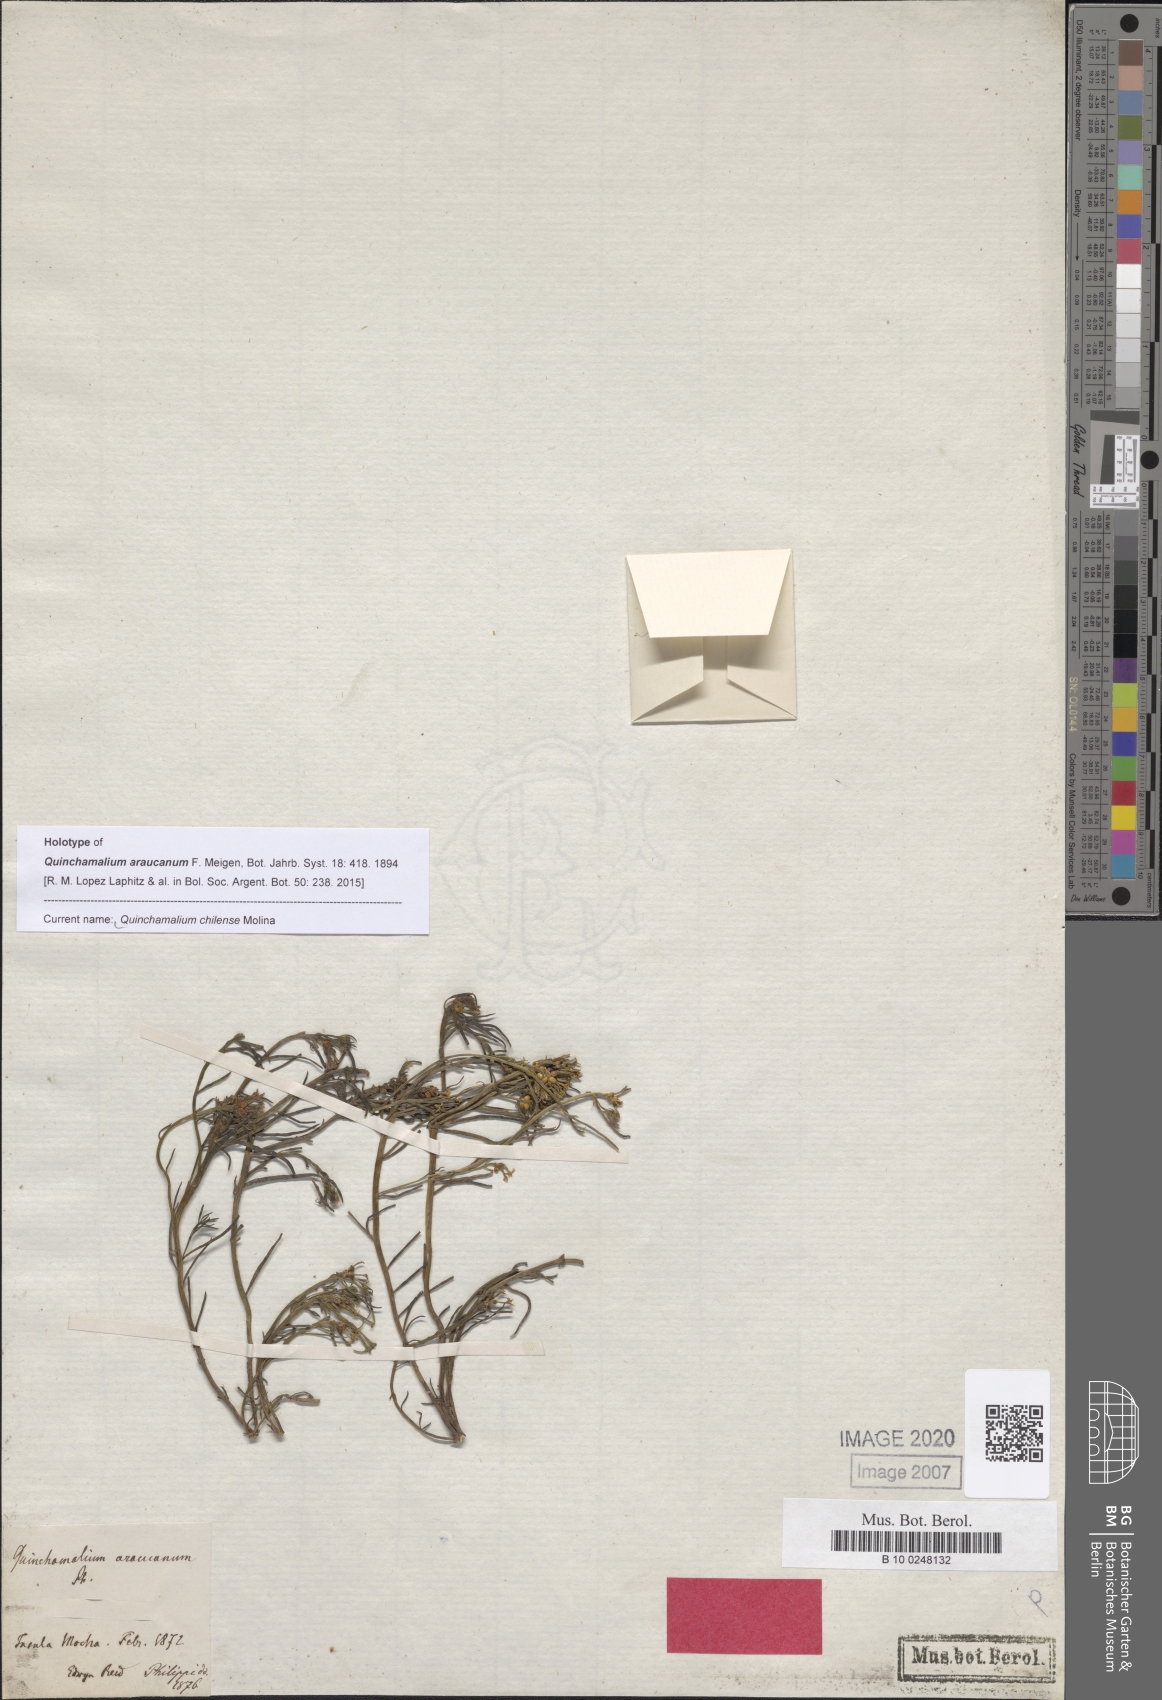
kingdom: Plantae
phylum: Tracheophyta
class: Magnoliopsida
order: Santalales
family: Schoepfiaceae
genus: Quinchamalium
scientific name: Quinchamalium chilense
